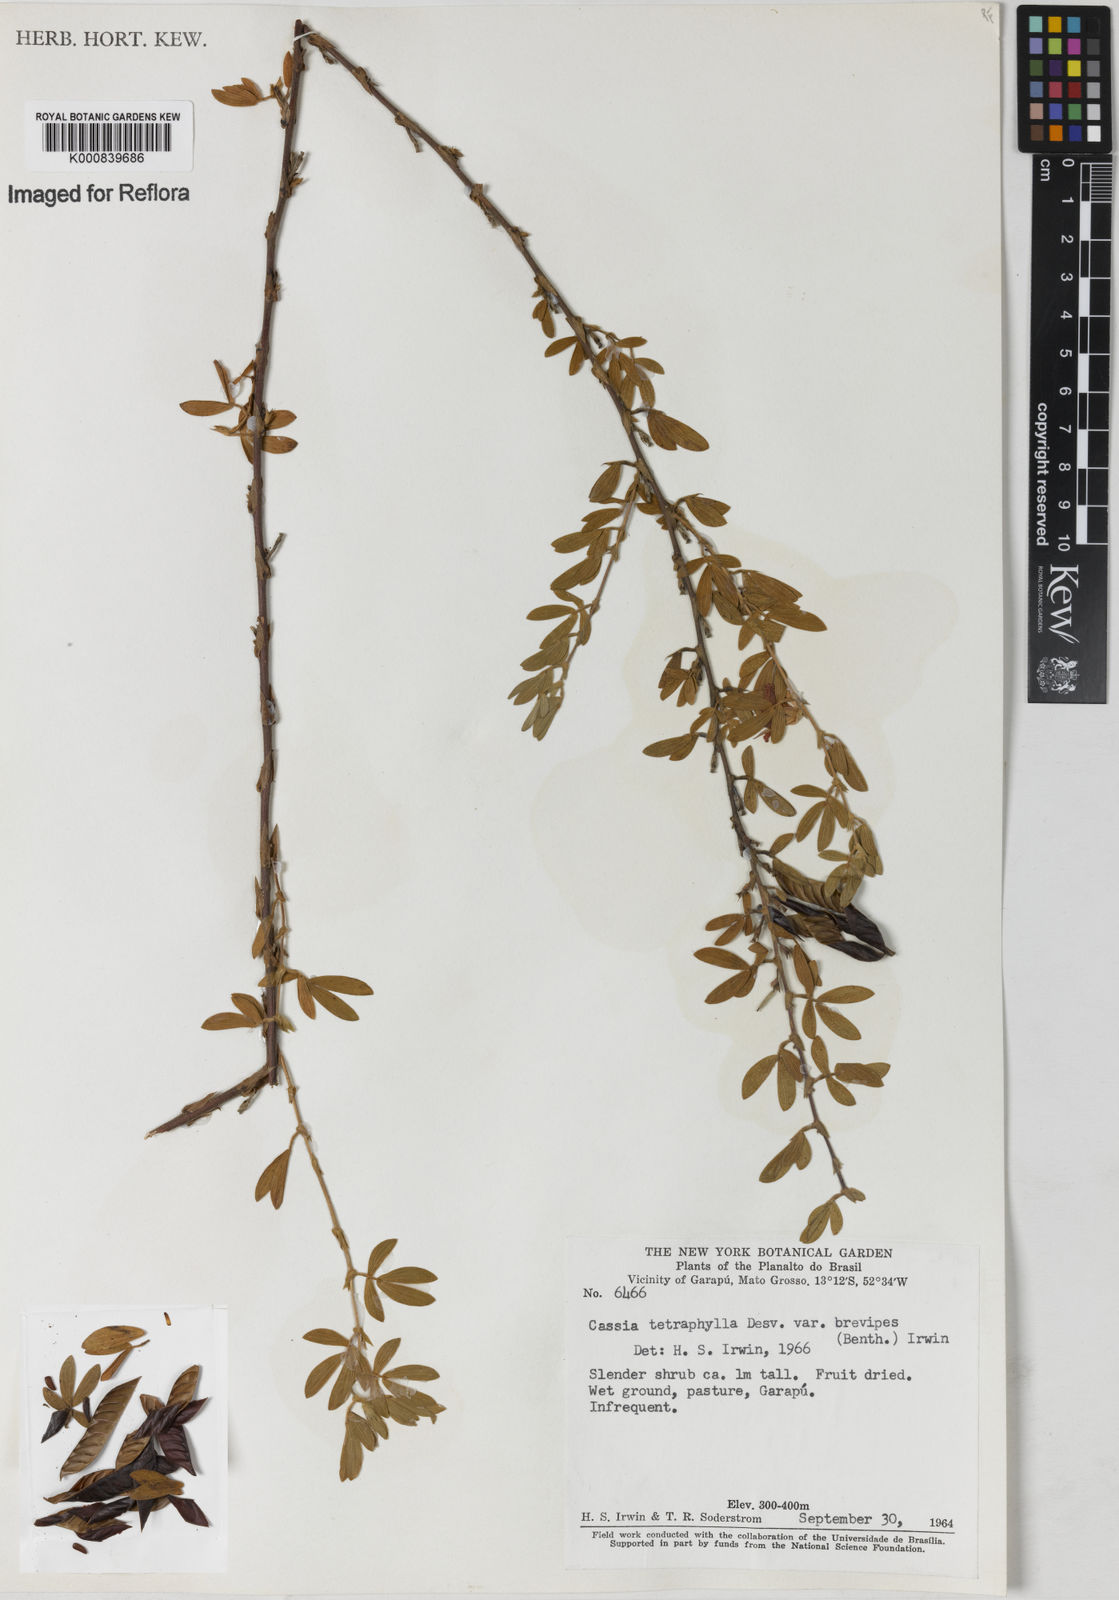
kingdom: Plantae
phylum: Tracheophyta
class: Magnoliopsida
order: Fabales
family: Fabaceae
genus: Chamaecrista
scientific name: Chamaecrista desvauxii
